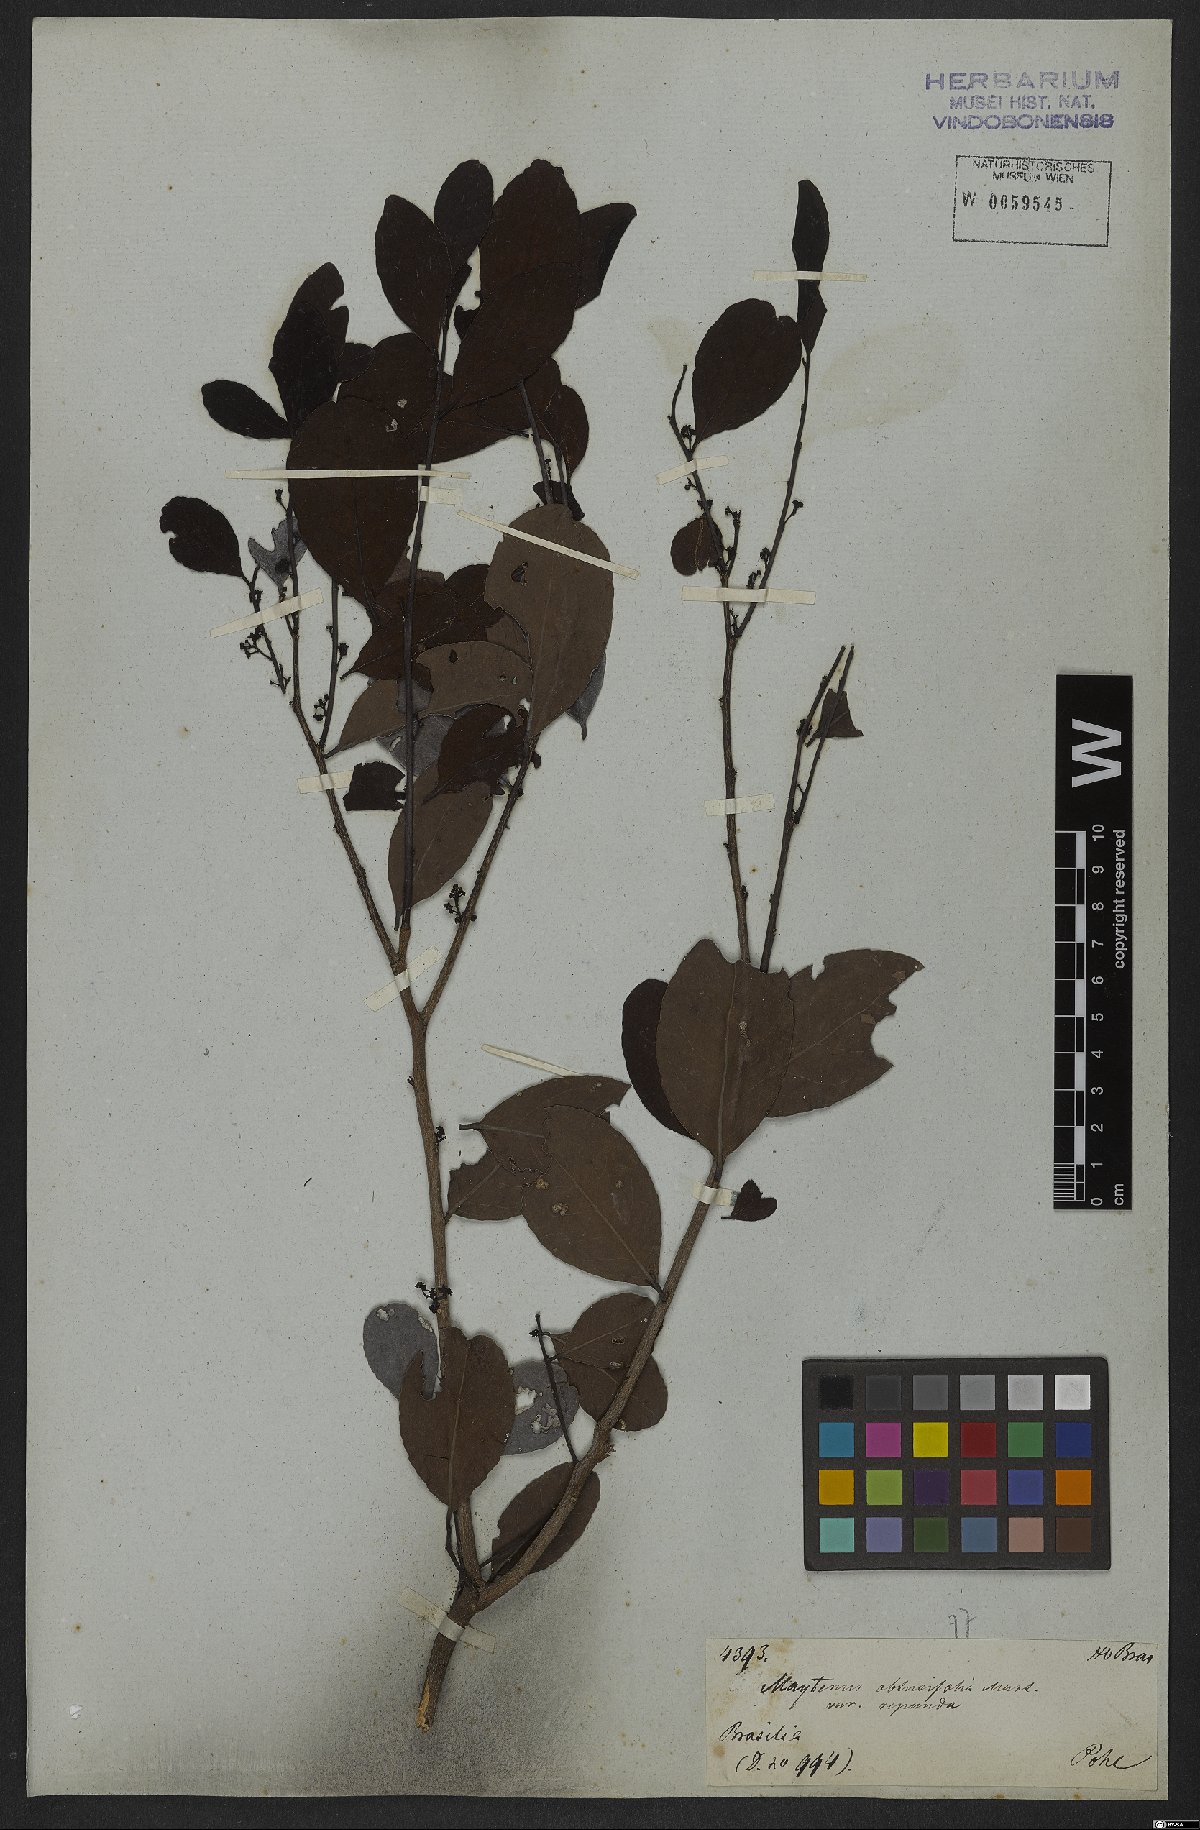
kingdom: Plantae
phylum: Tracheophyta
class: Magnoliopsida
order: Celastrales
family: Celastraceae
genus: Monteverdia
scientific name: Monteverdia obtusifolia
